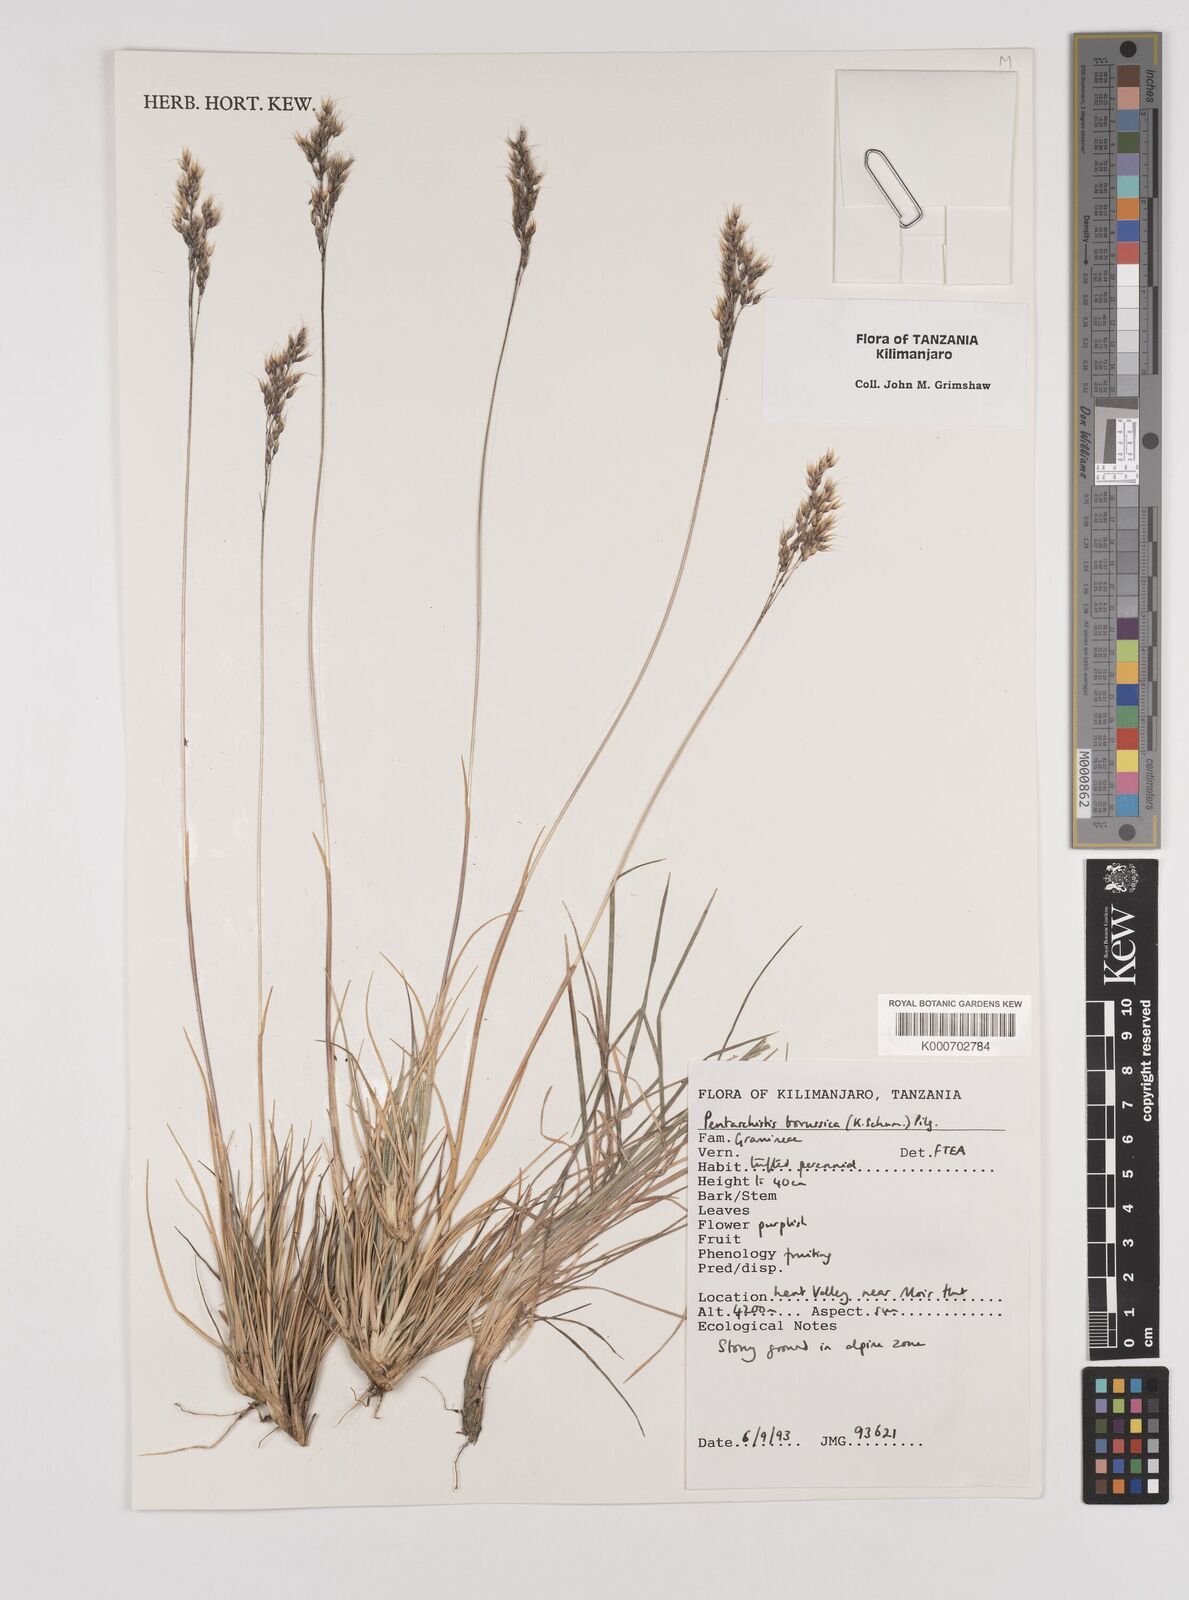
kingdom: Plantae
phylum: Tracheophyta
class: Liliopsida
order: Poales
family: Poaceae
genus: Pentameris
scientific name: Pentameris borussica
